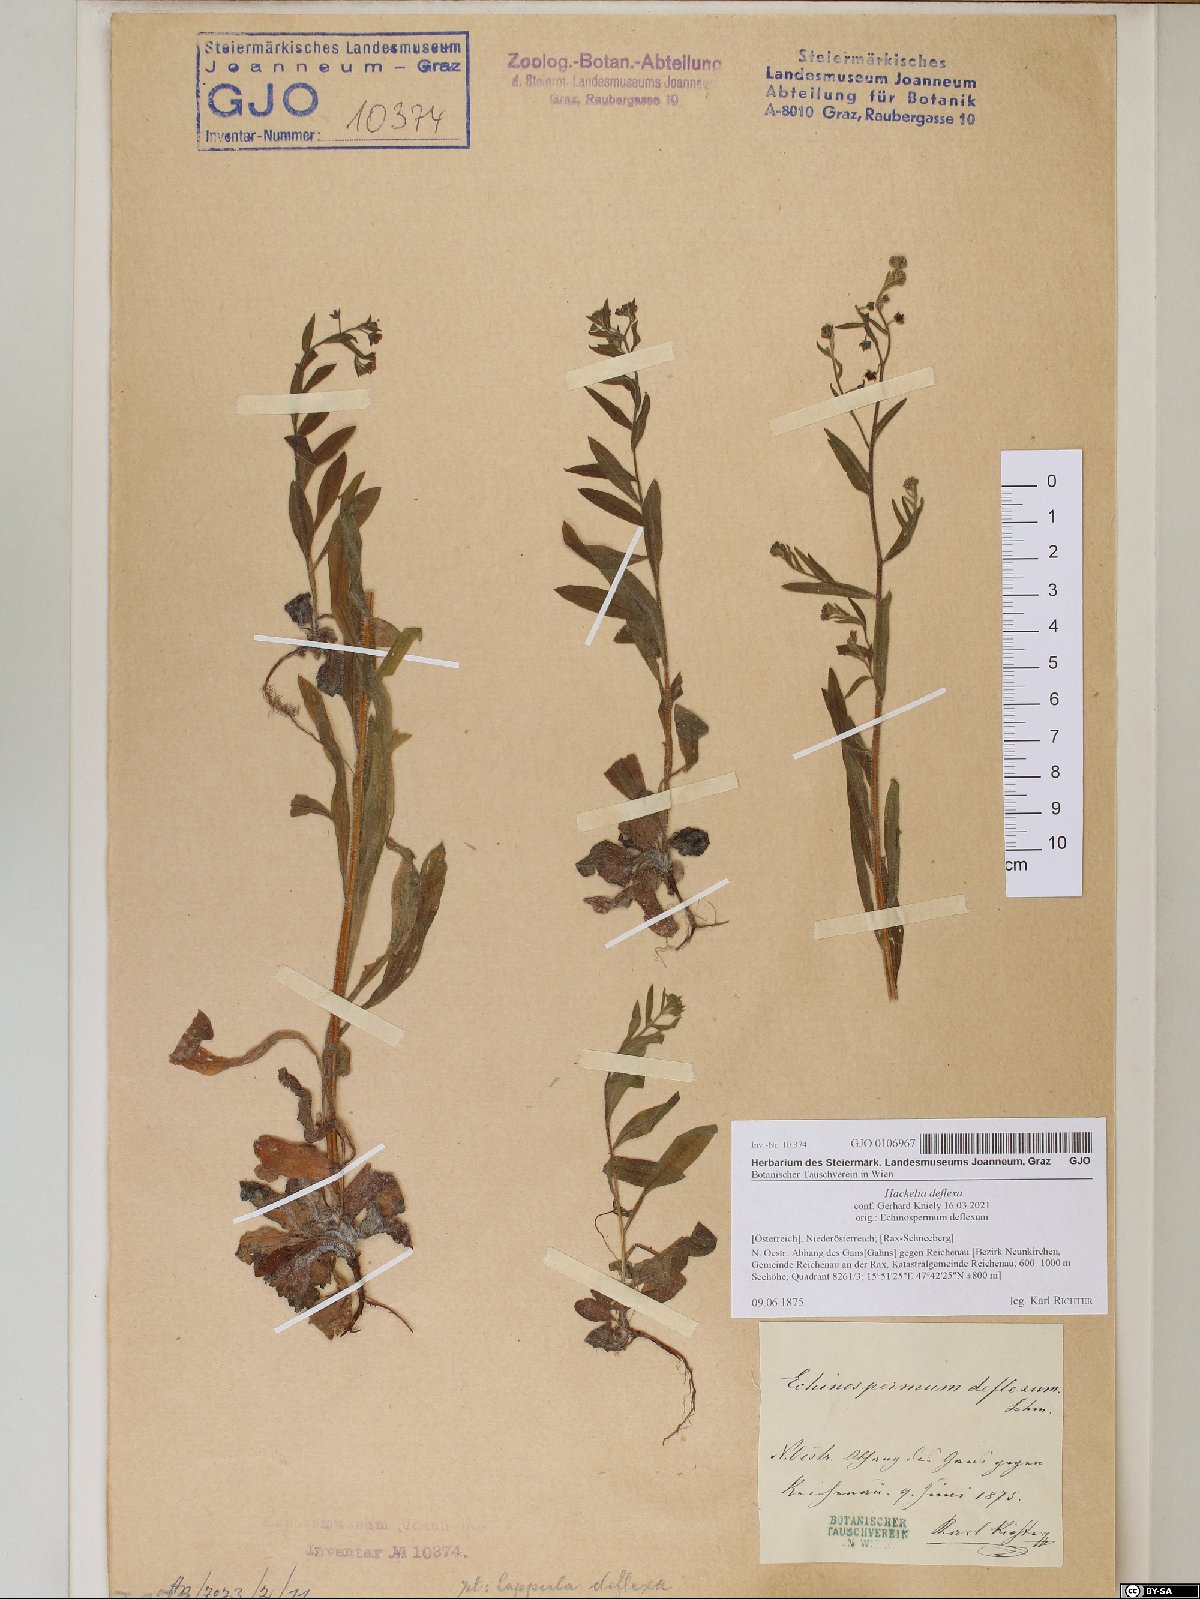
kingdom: Plantae
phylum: Tracheophyta
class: Magnoliopsida
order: Boraginales
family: Boraginaceae
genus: Hackelia
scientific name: Hackelia deflexa
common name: Nodding stickseed
